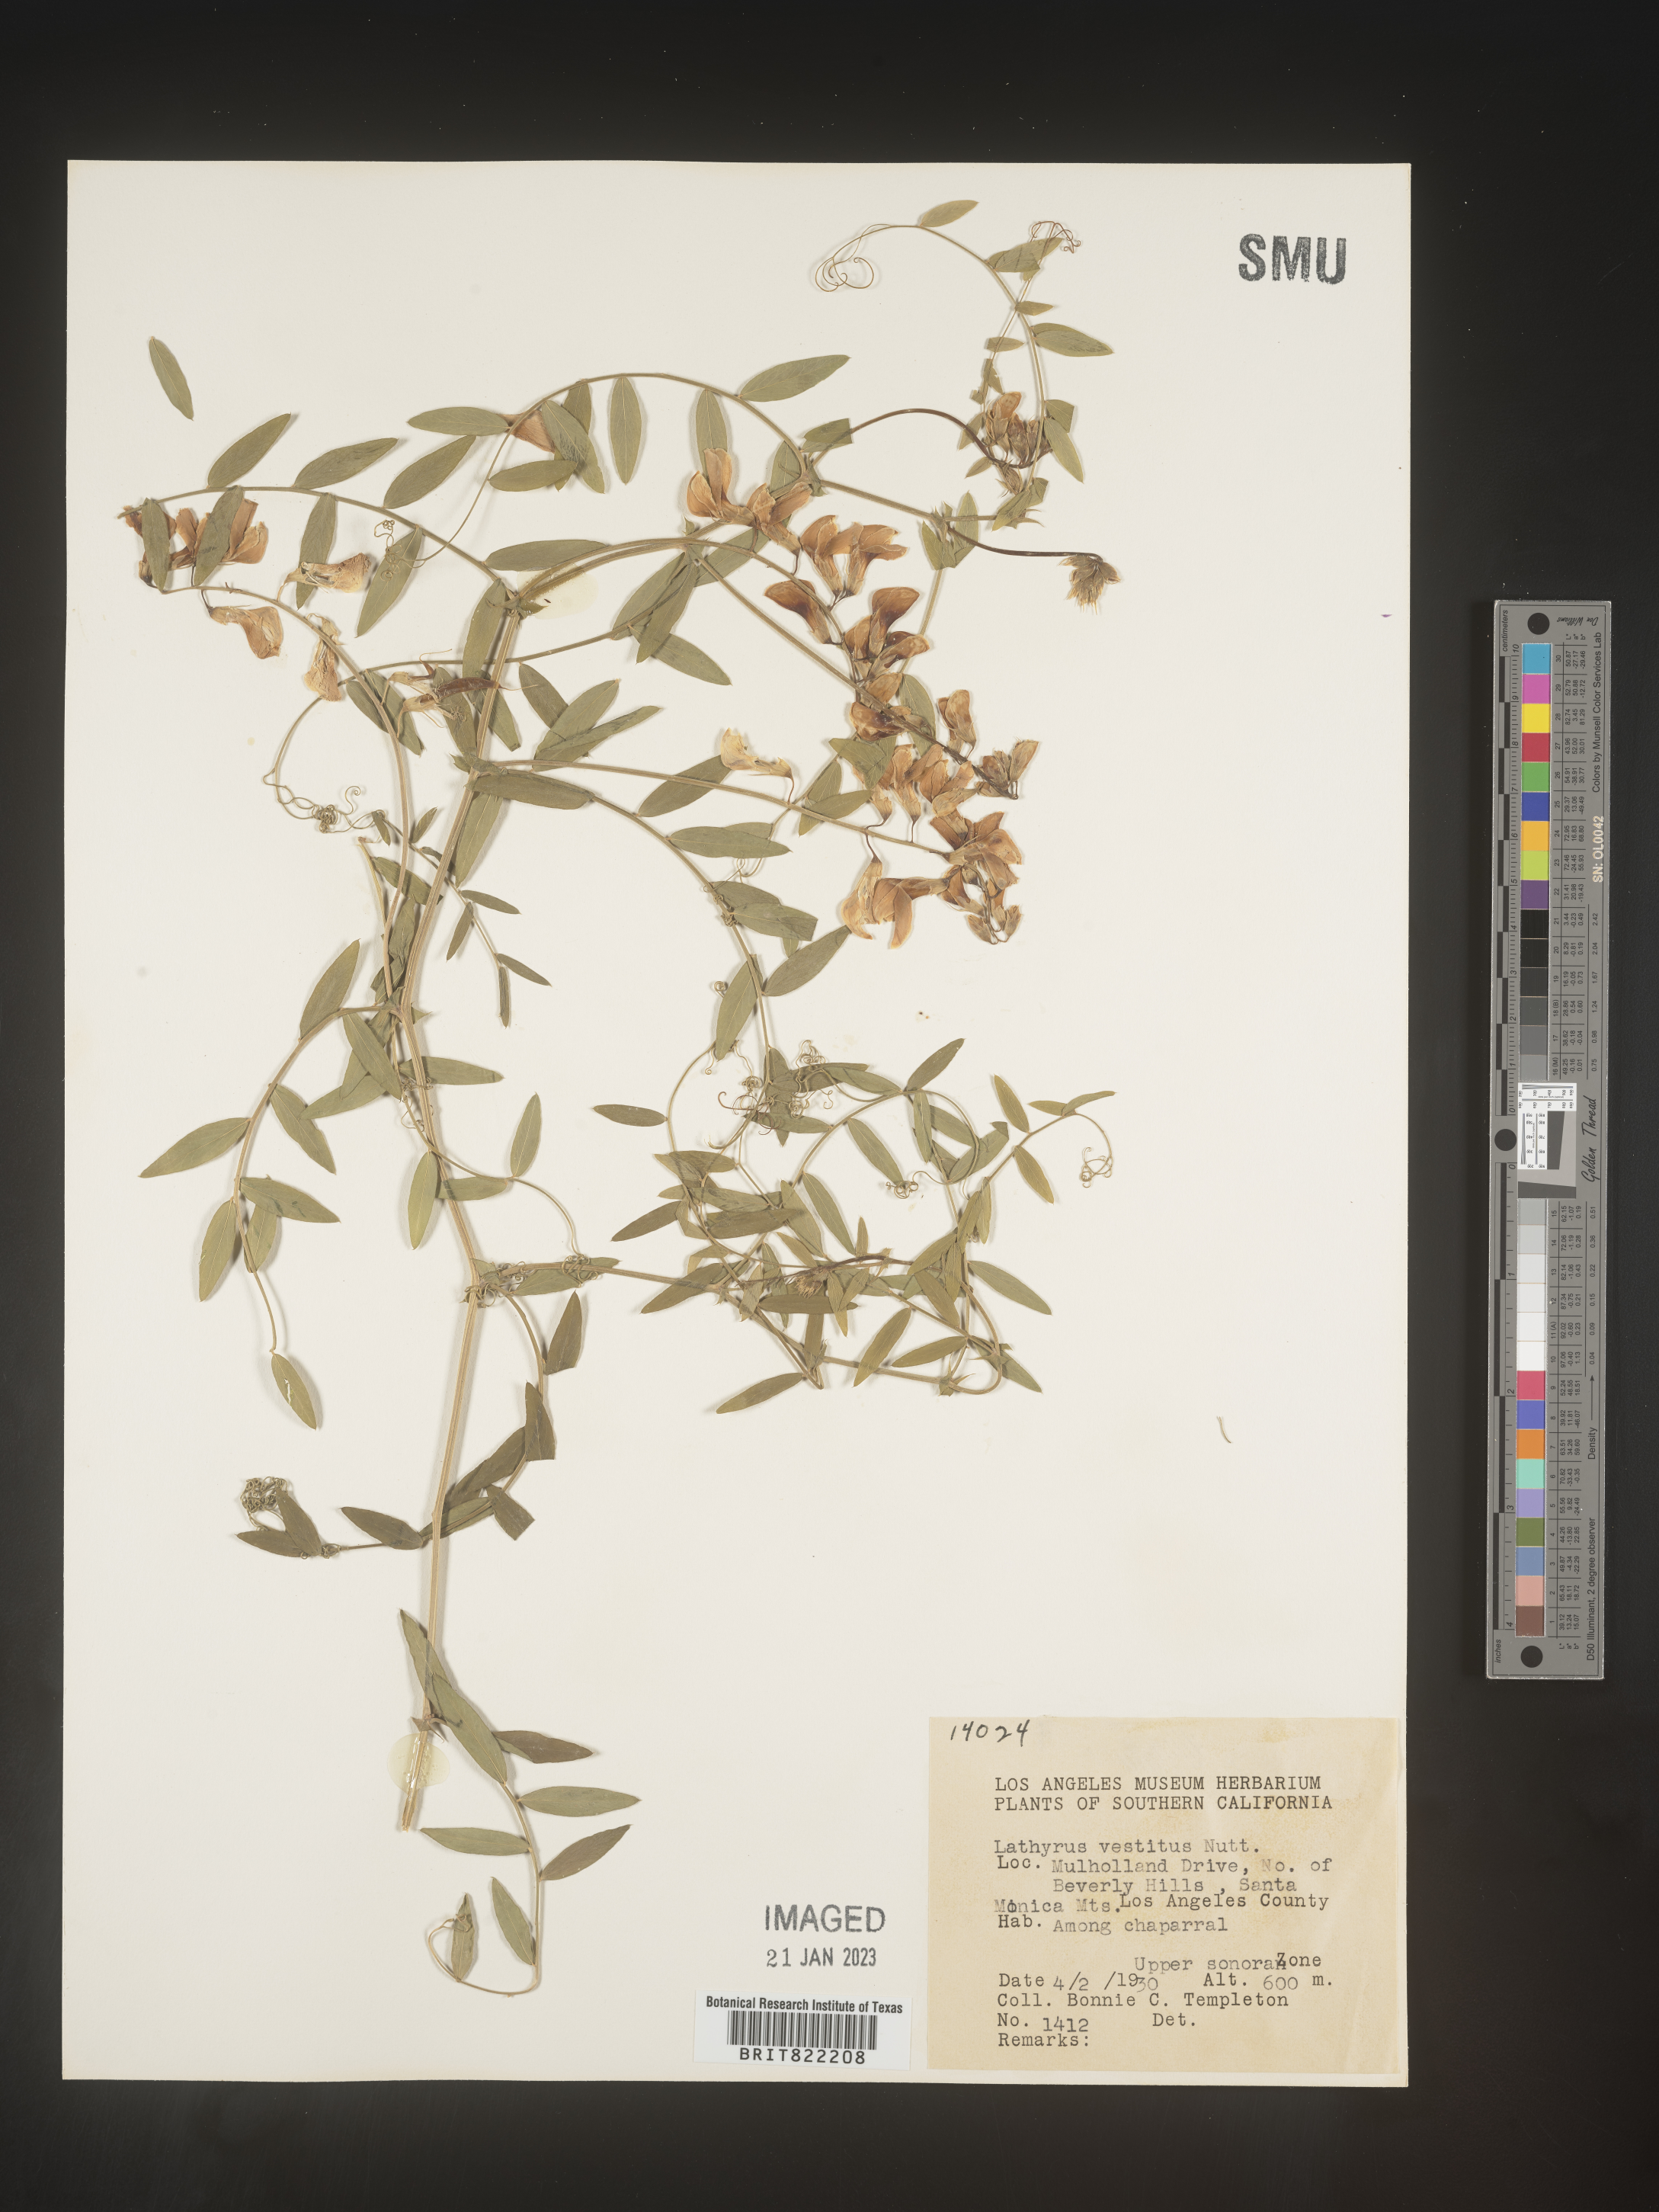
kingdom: Plantae
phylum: Tracheophyta
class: Magnoliopsida
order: Fabales
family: Fabaceae
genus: Lathyrus
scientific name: Lathyrus vestitus
